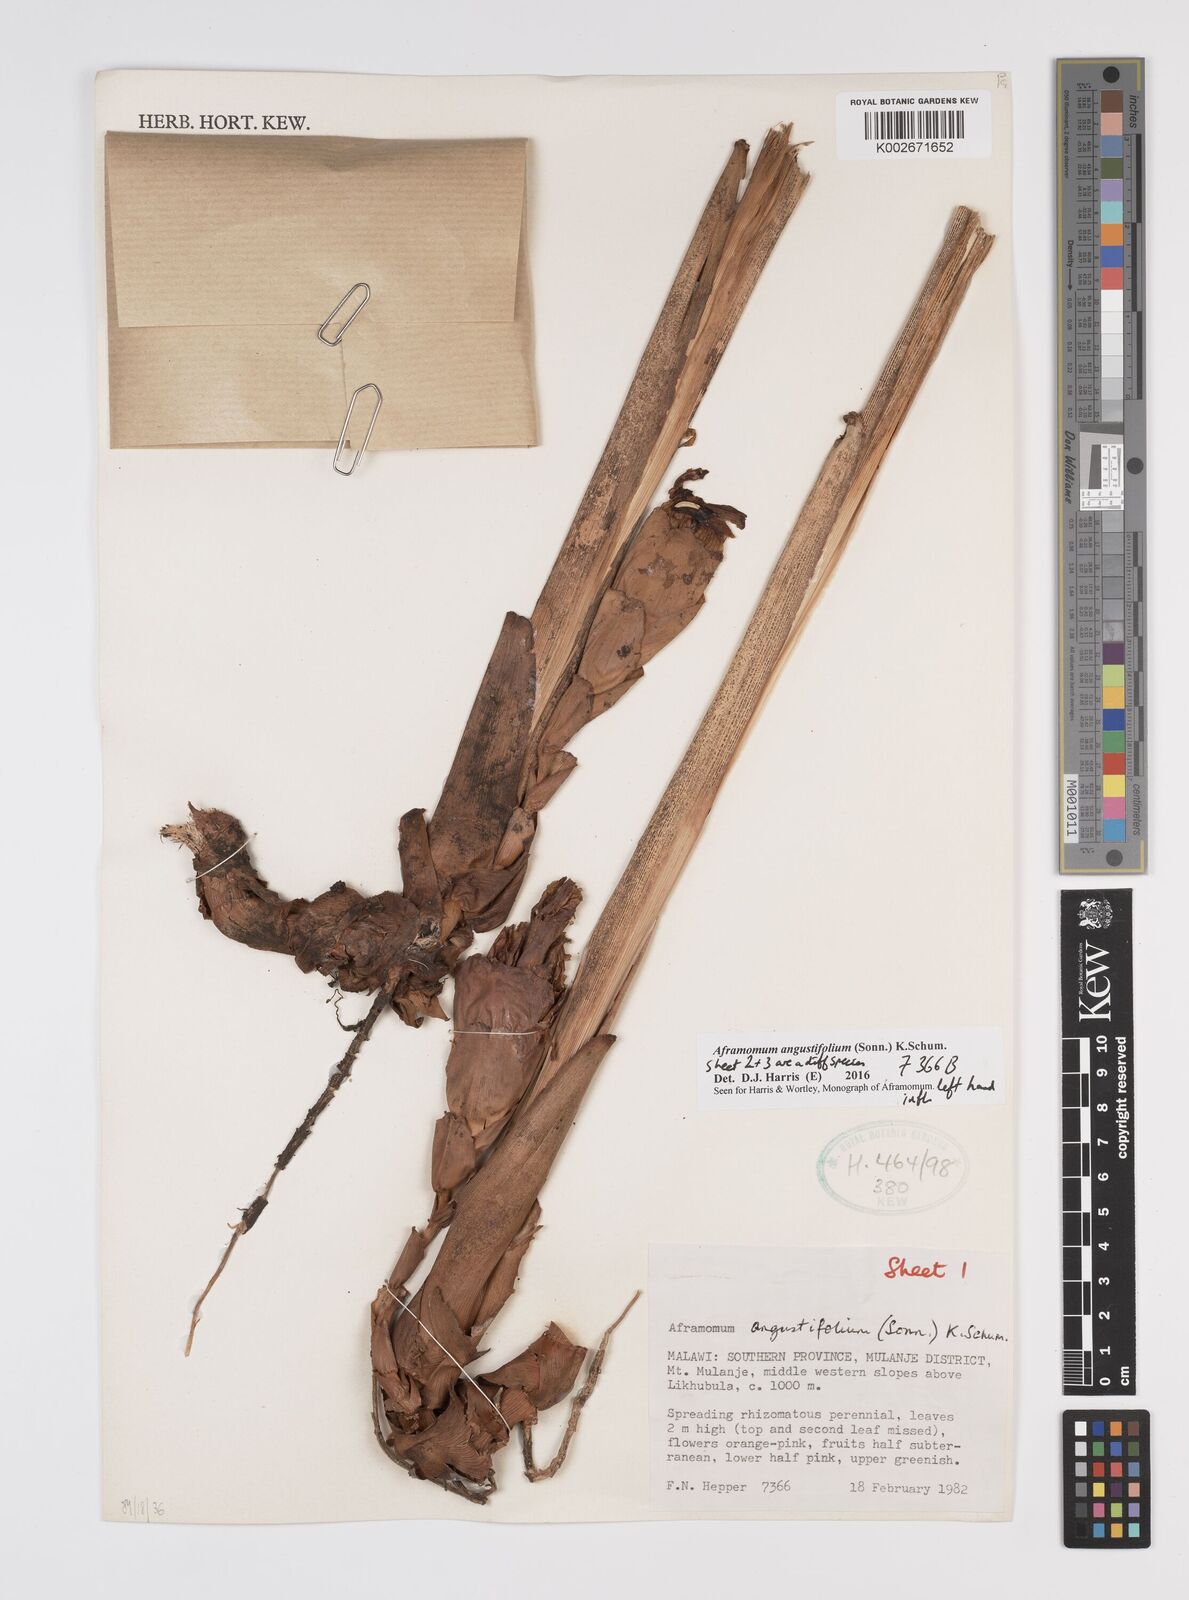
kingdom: Plantae
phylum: Tracheophyta
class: Liliopsida
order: Zingiberales
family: Zingiberaceae
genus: Aframomum
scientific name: Aframomum angustifolium
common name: Guinea grains
